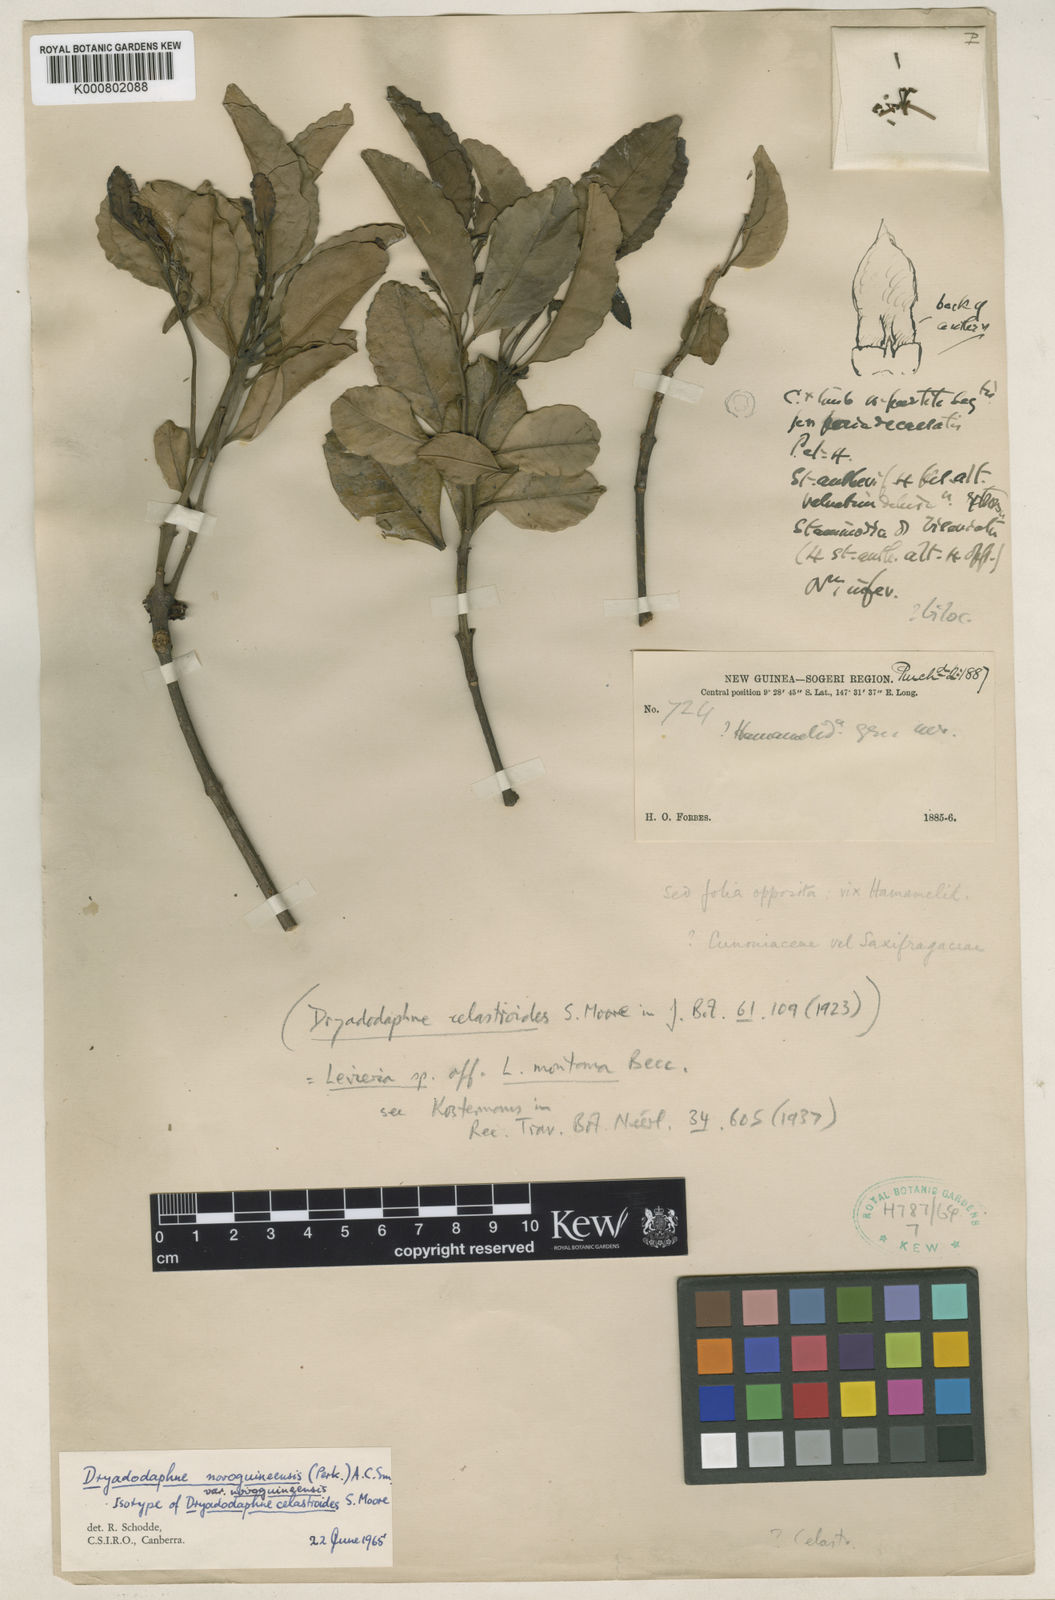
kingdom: Plantae
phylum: Tracheophyta
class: Magnoliopsida
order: Laurales
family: Monimiaceae
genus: Levieria
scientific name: Levieria montana
